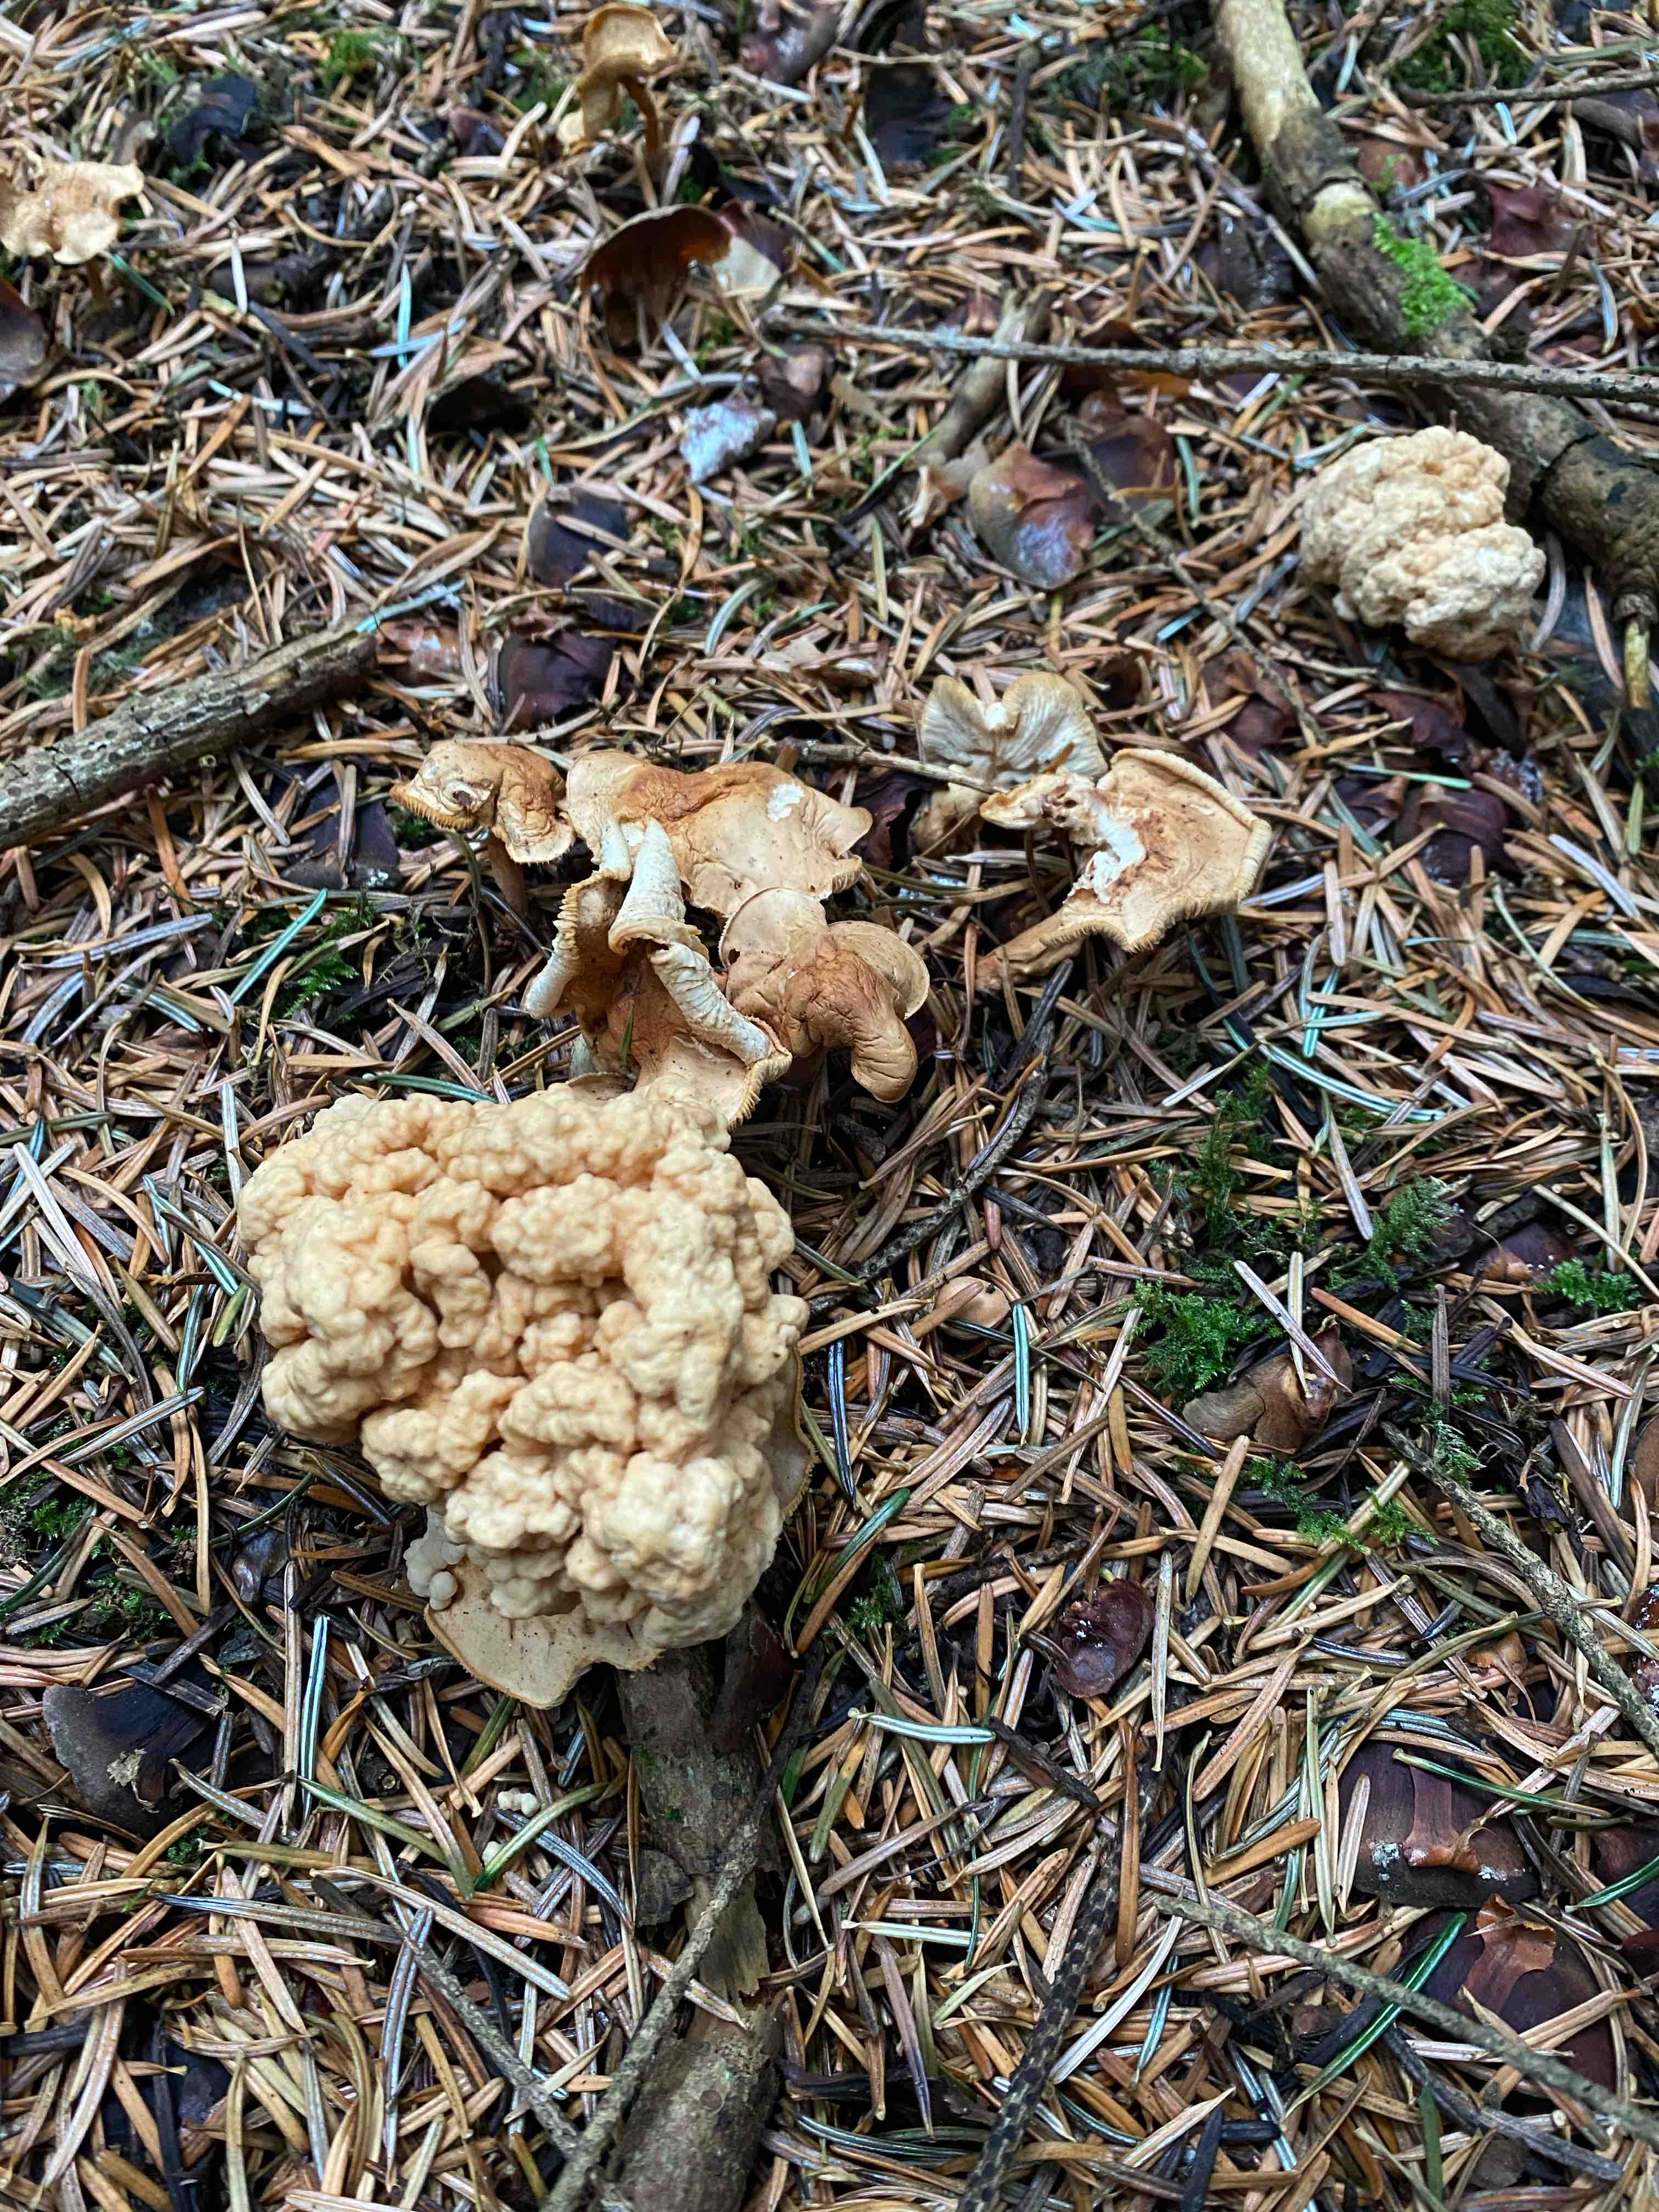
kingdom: Fungi
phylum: Basidiomycota
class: Tremellomycetes
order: Tremellales
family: Syzygosporaceae
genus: Syzygospora
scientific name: Syzygospora
